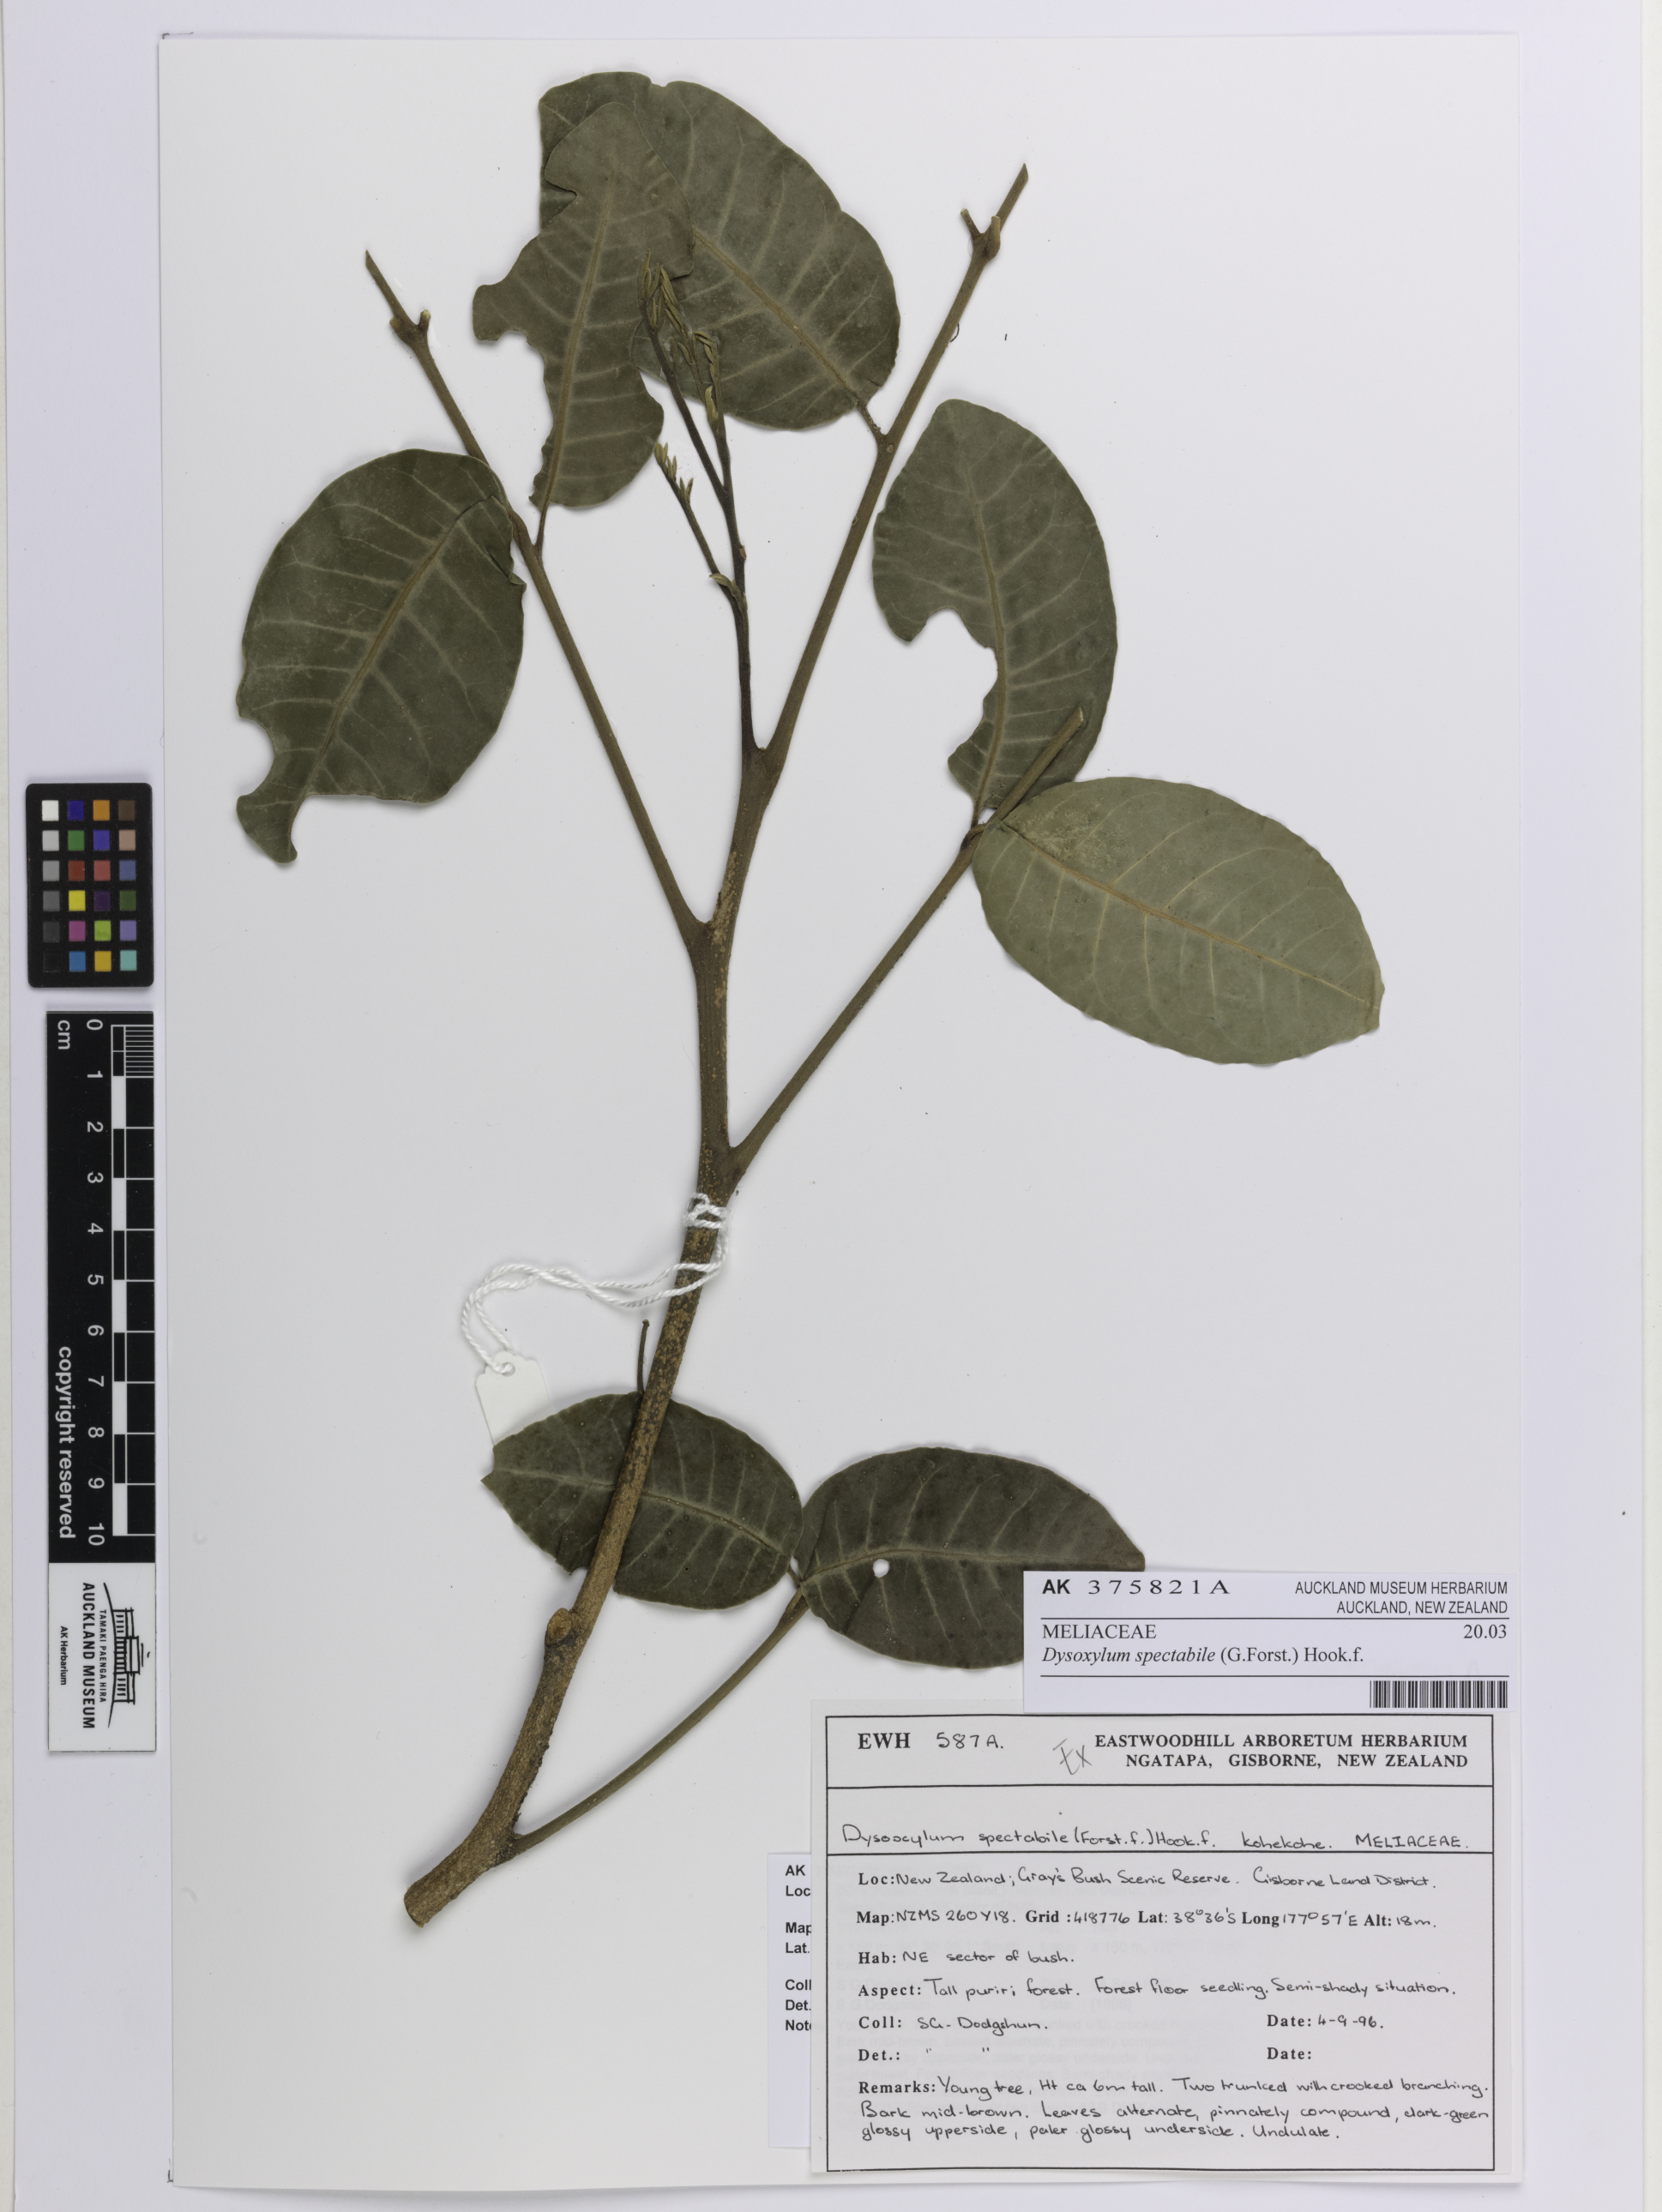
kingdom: Plantae
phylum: Tracheophyta
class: Magnoliopsida
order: Sapindales
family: Meliaceae
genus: Didymocheton
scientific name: Didymocheton spectabilis
